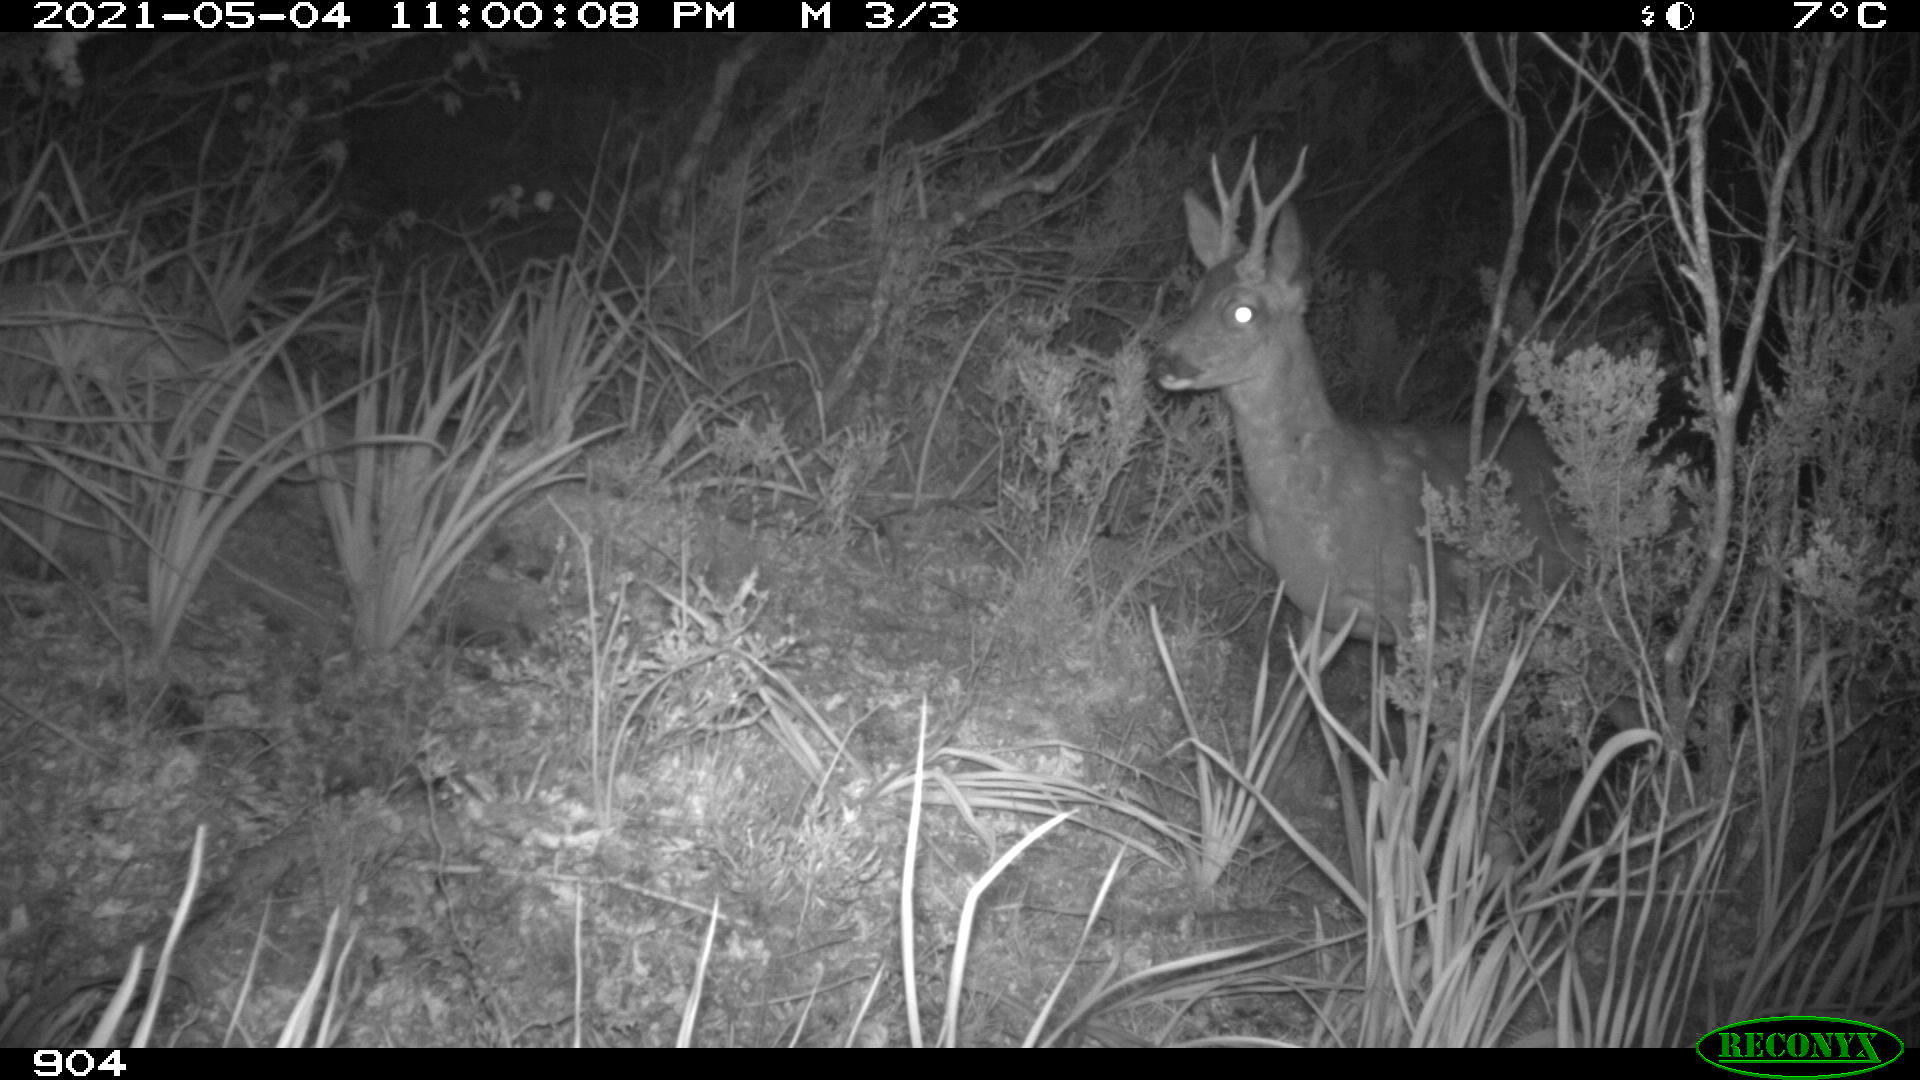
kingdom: Animalia
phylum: Chordata
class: Mammalia
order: Artiodactyla
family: Cervidae
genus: Capreolus
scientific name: Capreolus capreolus
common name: Western roe deer
